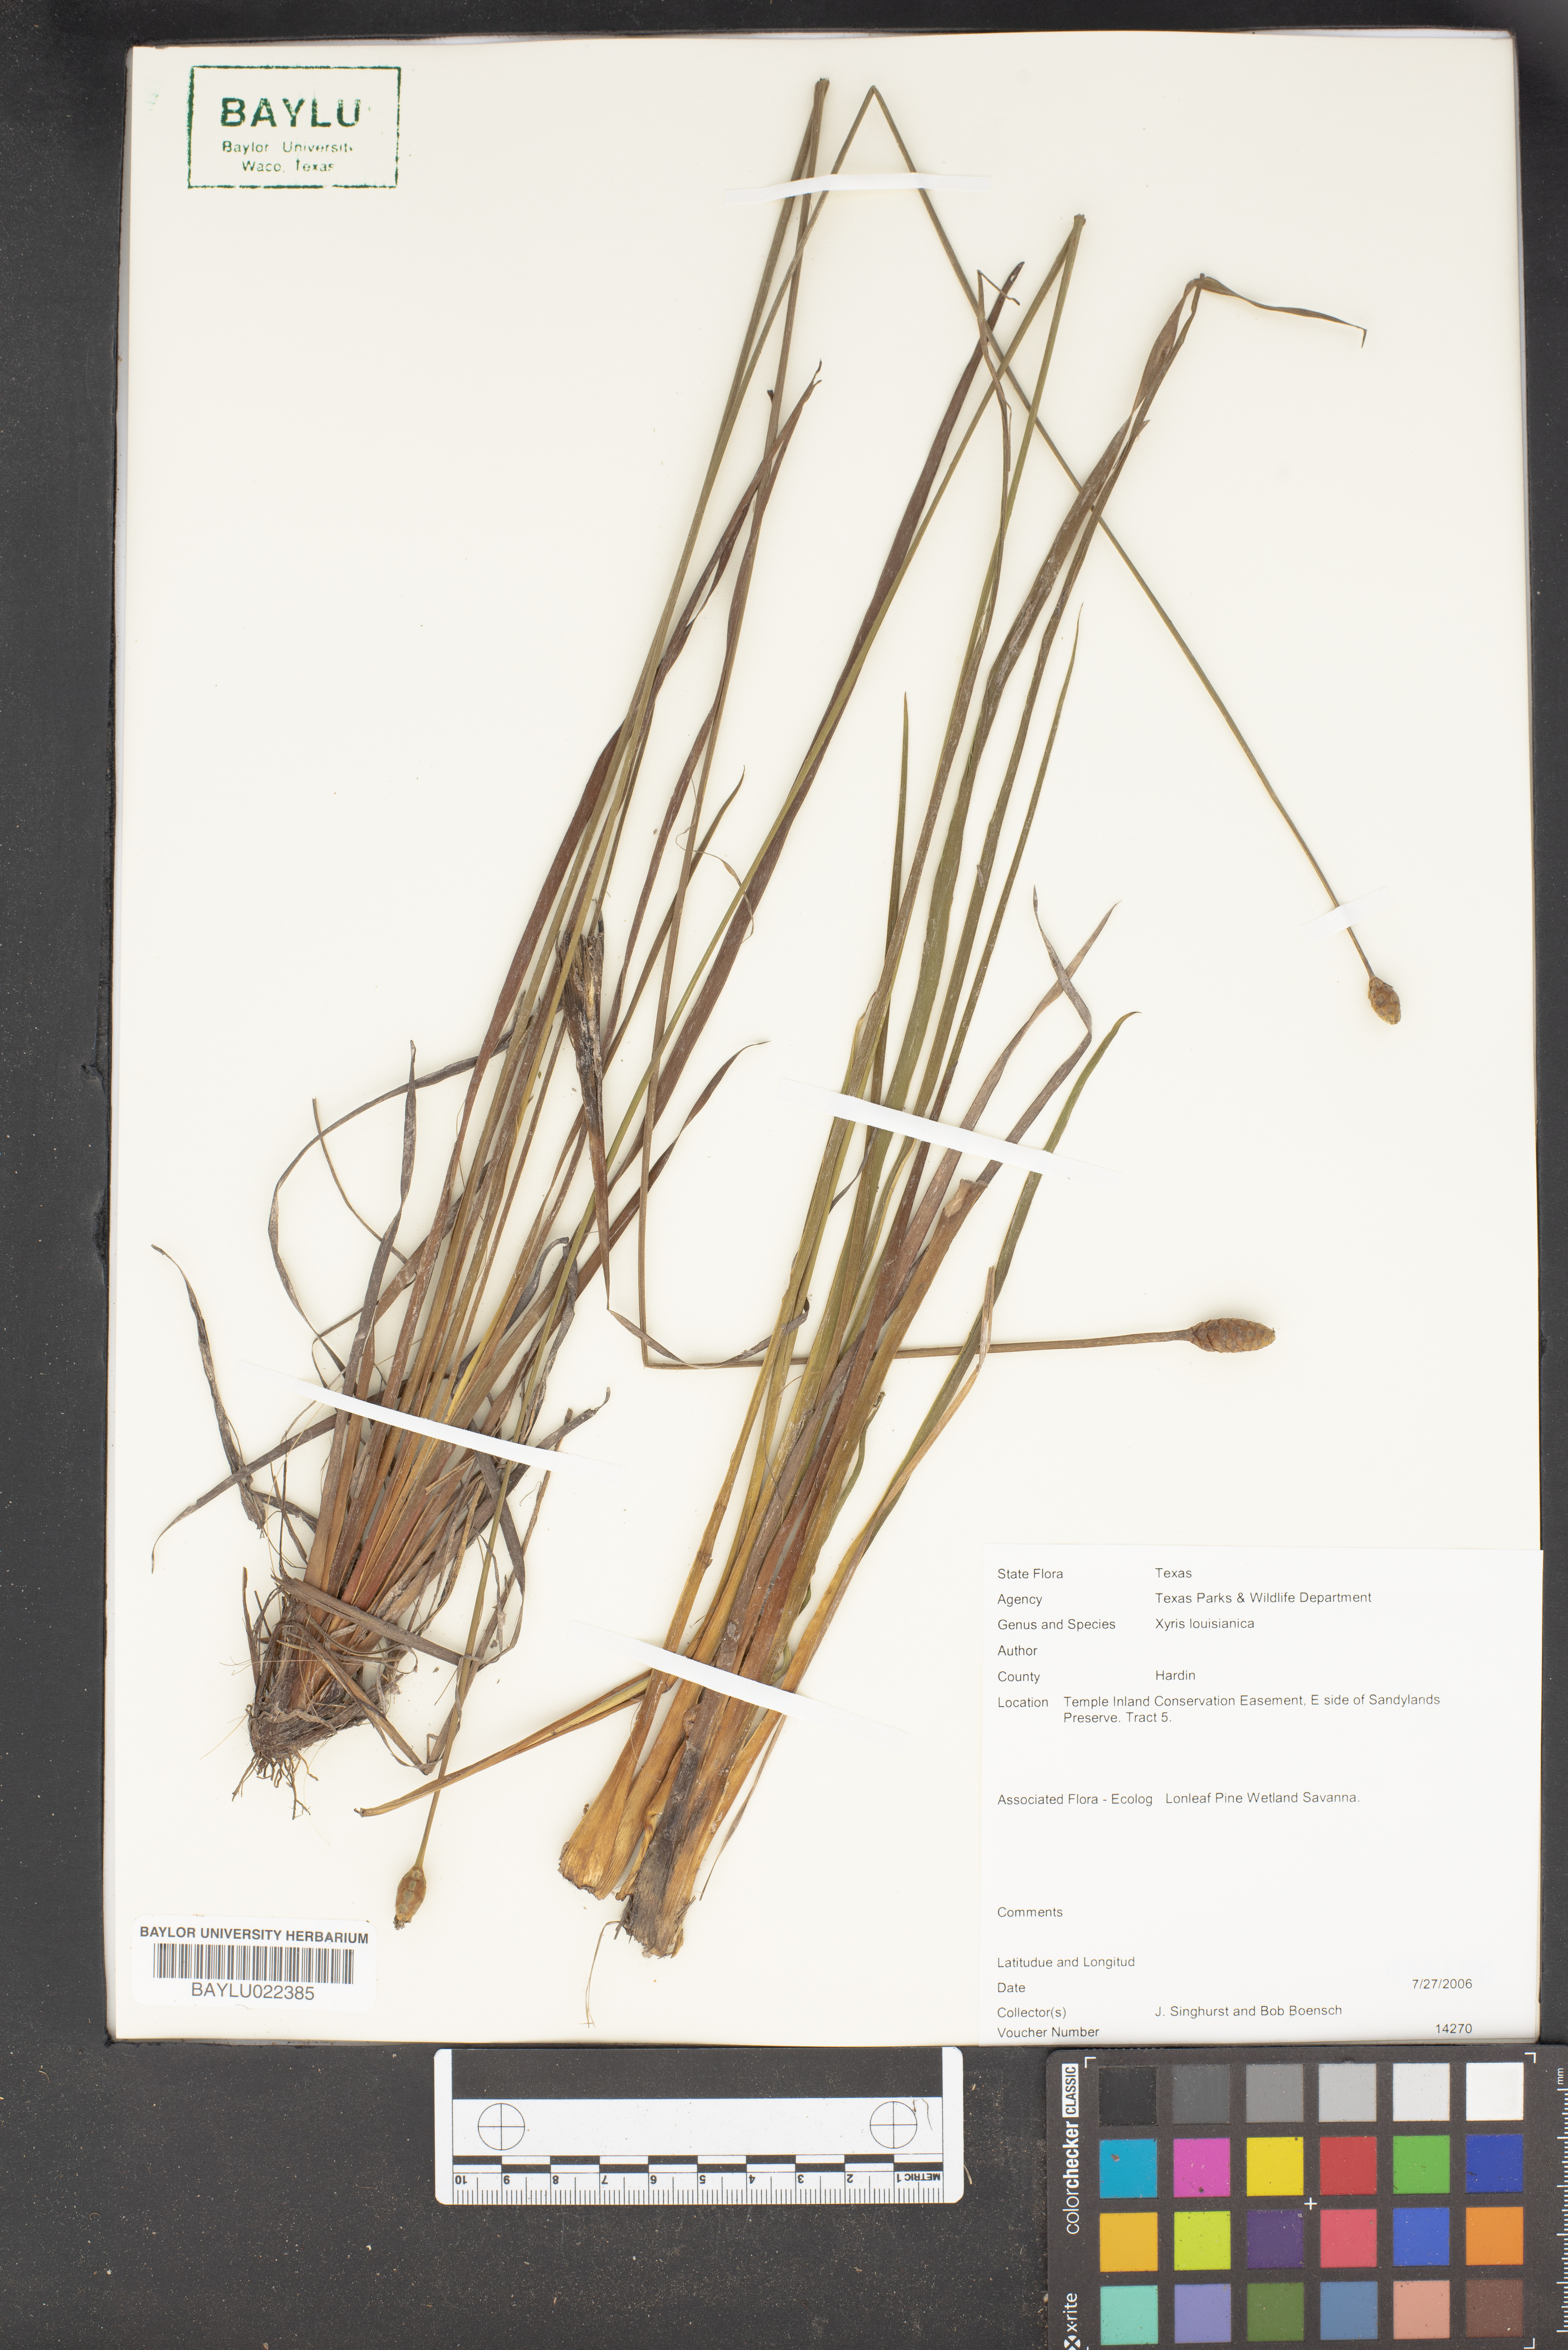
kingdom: Plantae
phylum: Tracheophyta
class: Liliopsida
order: Poales
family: Xyridaceae
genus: Xyris
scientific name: Xyris stricta
